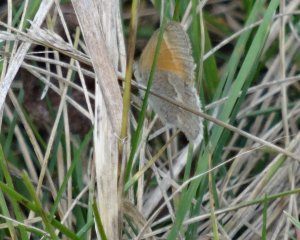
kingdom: Animalia
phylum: Arthropoda
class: Insecta
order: Lepidoptera
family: Nymphalidae
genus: Coenonympha
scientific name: Coenonympha tullia
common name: Large Heath
